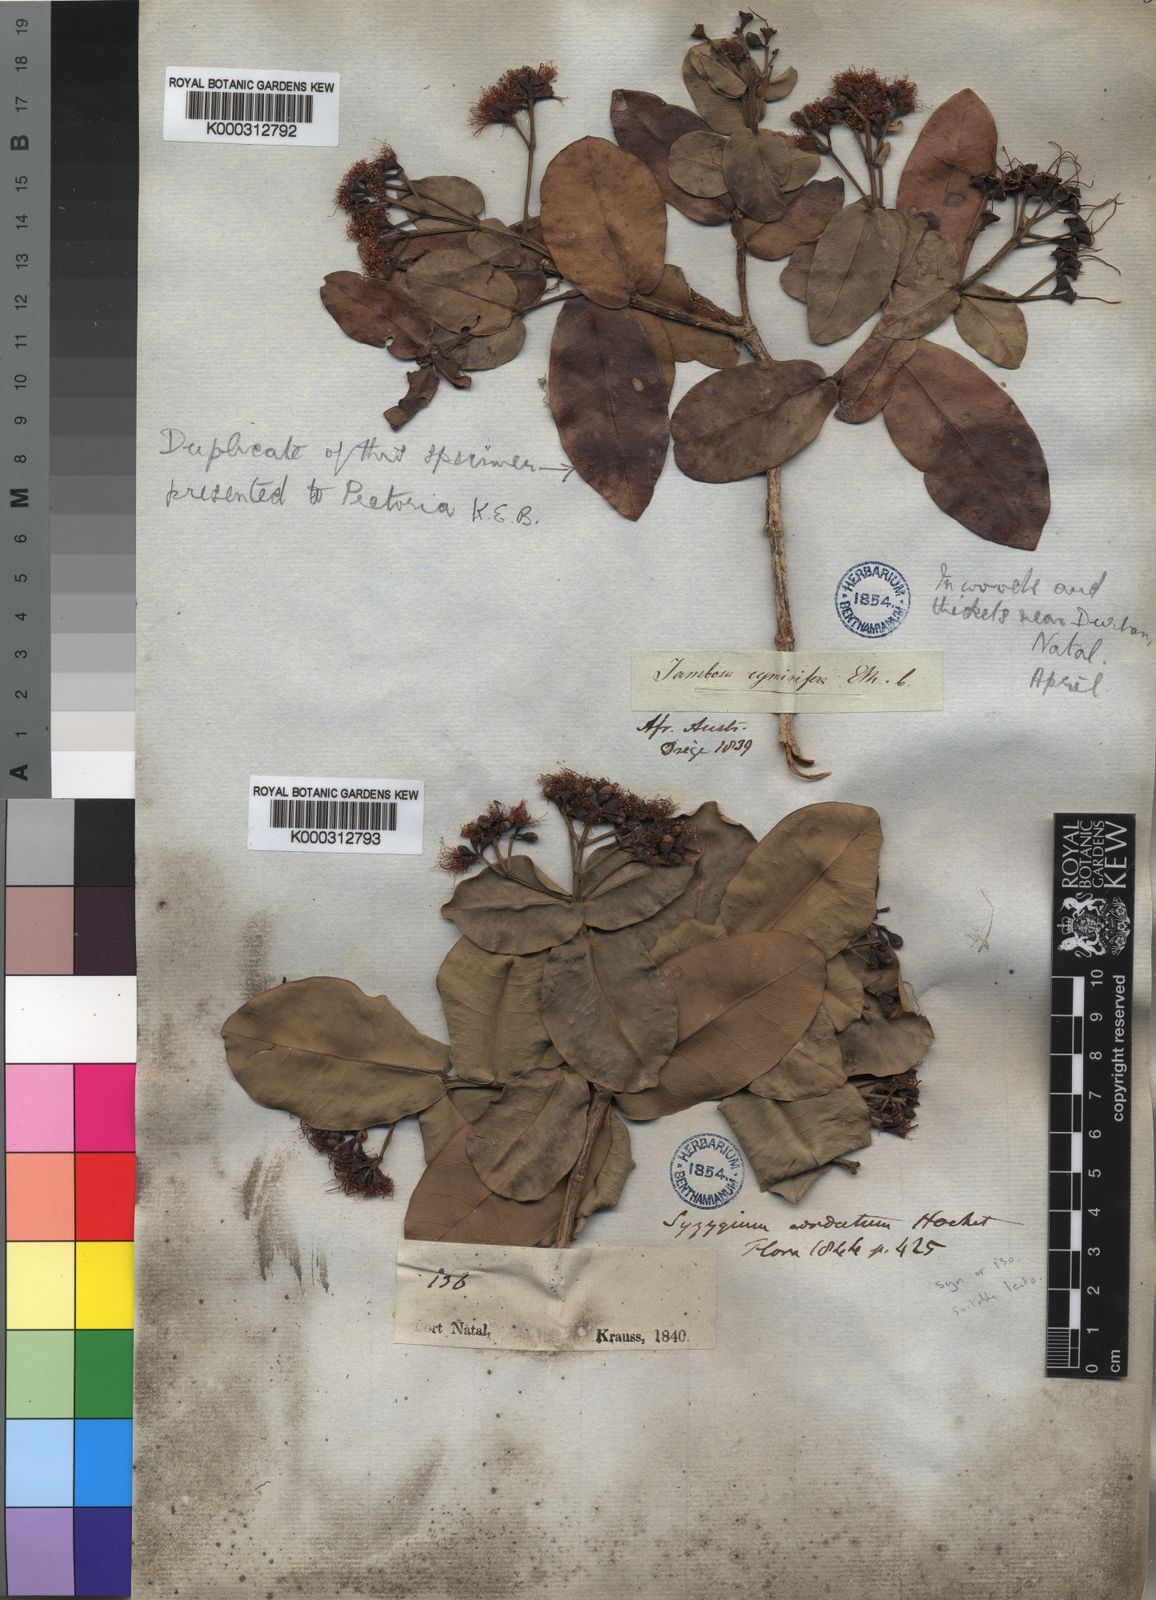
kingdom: Plantae
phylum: Tracheophyta
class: Magnoliopsida
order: Myrtales
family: Myrtaceae
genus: Syzygium
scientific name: Syzygium
